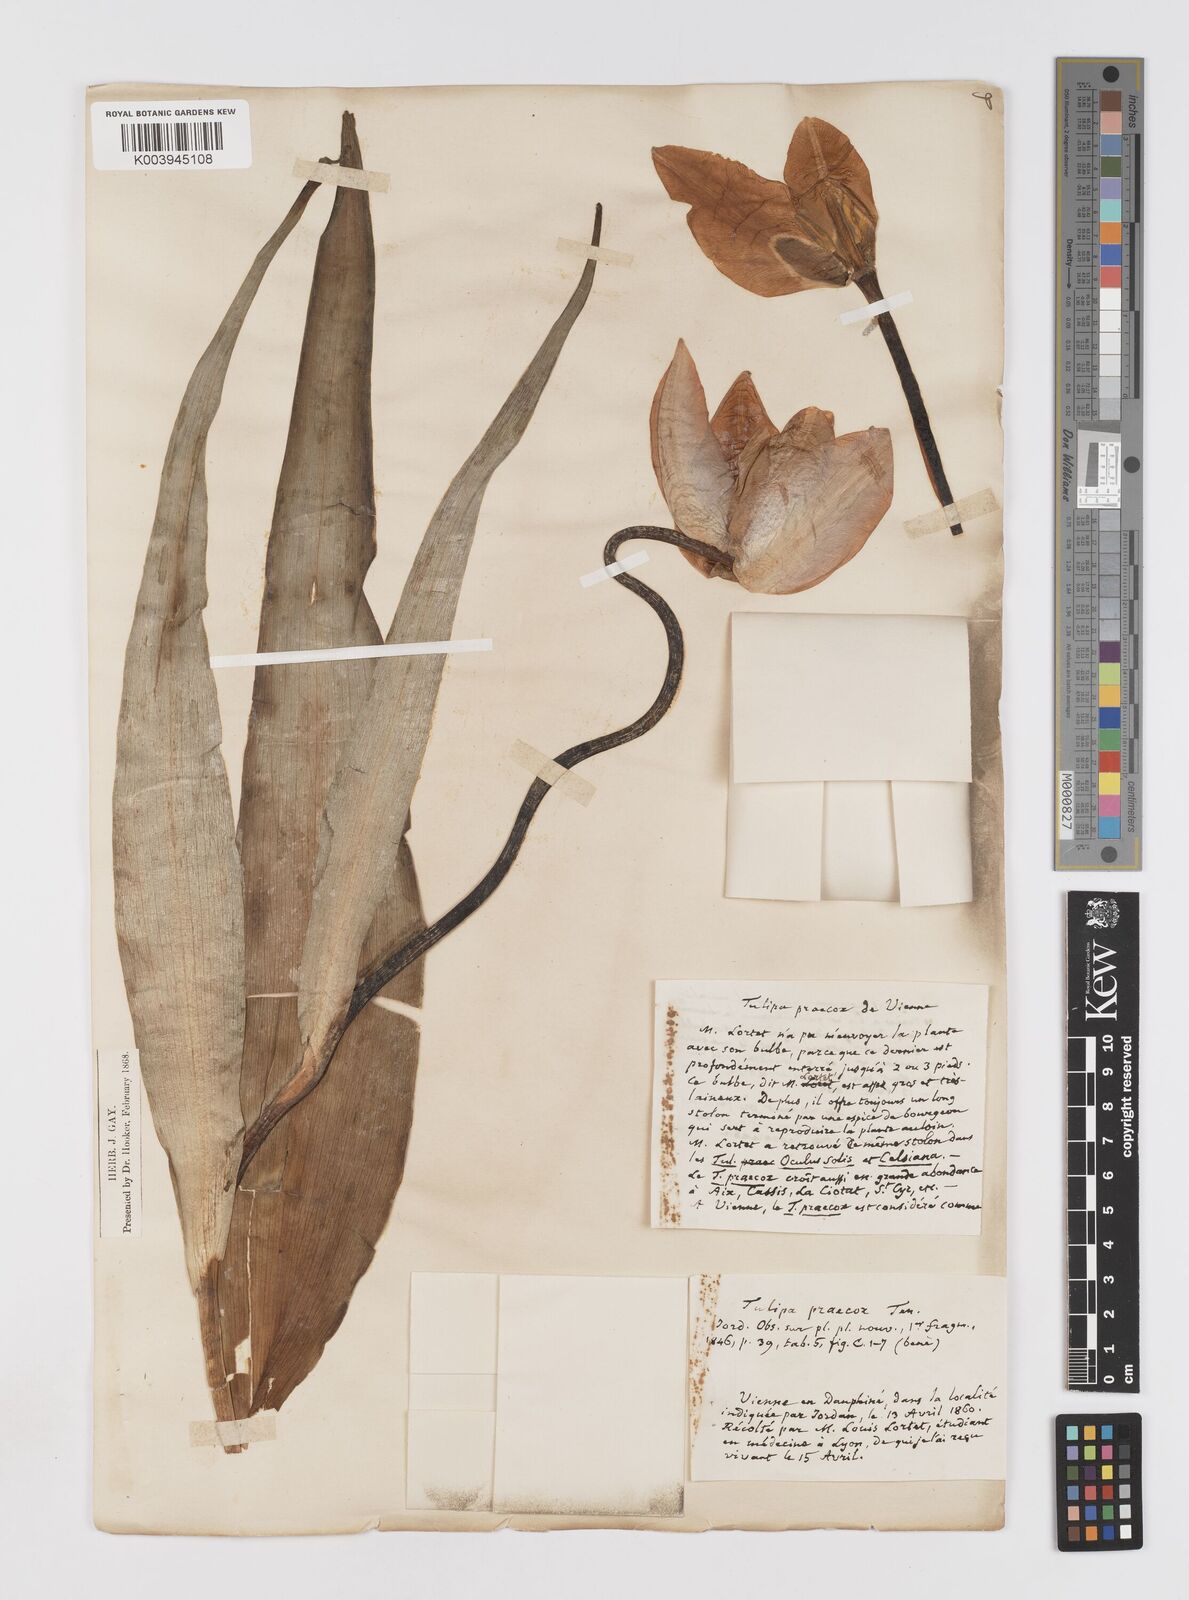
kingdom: Plantae
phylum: Tracheophyta
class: Liliopsida
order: Liliales
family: Liliaceae
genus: Tulipa
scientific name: Tulipa
